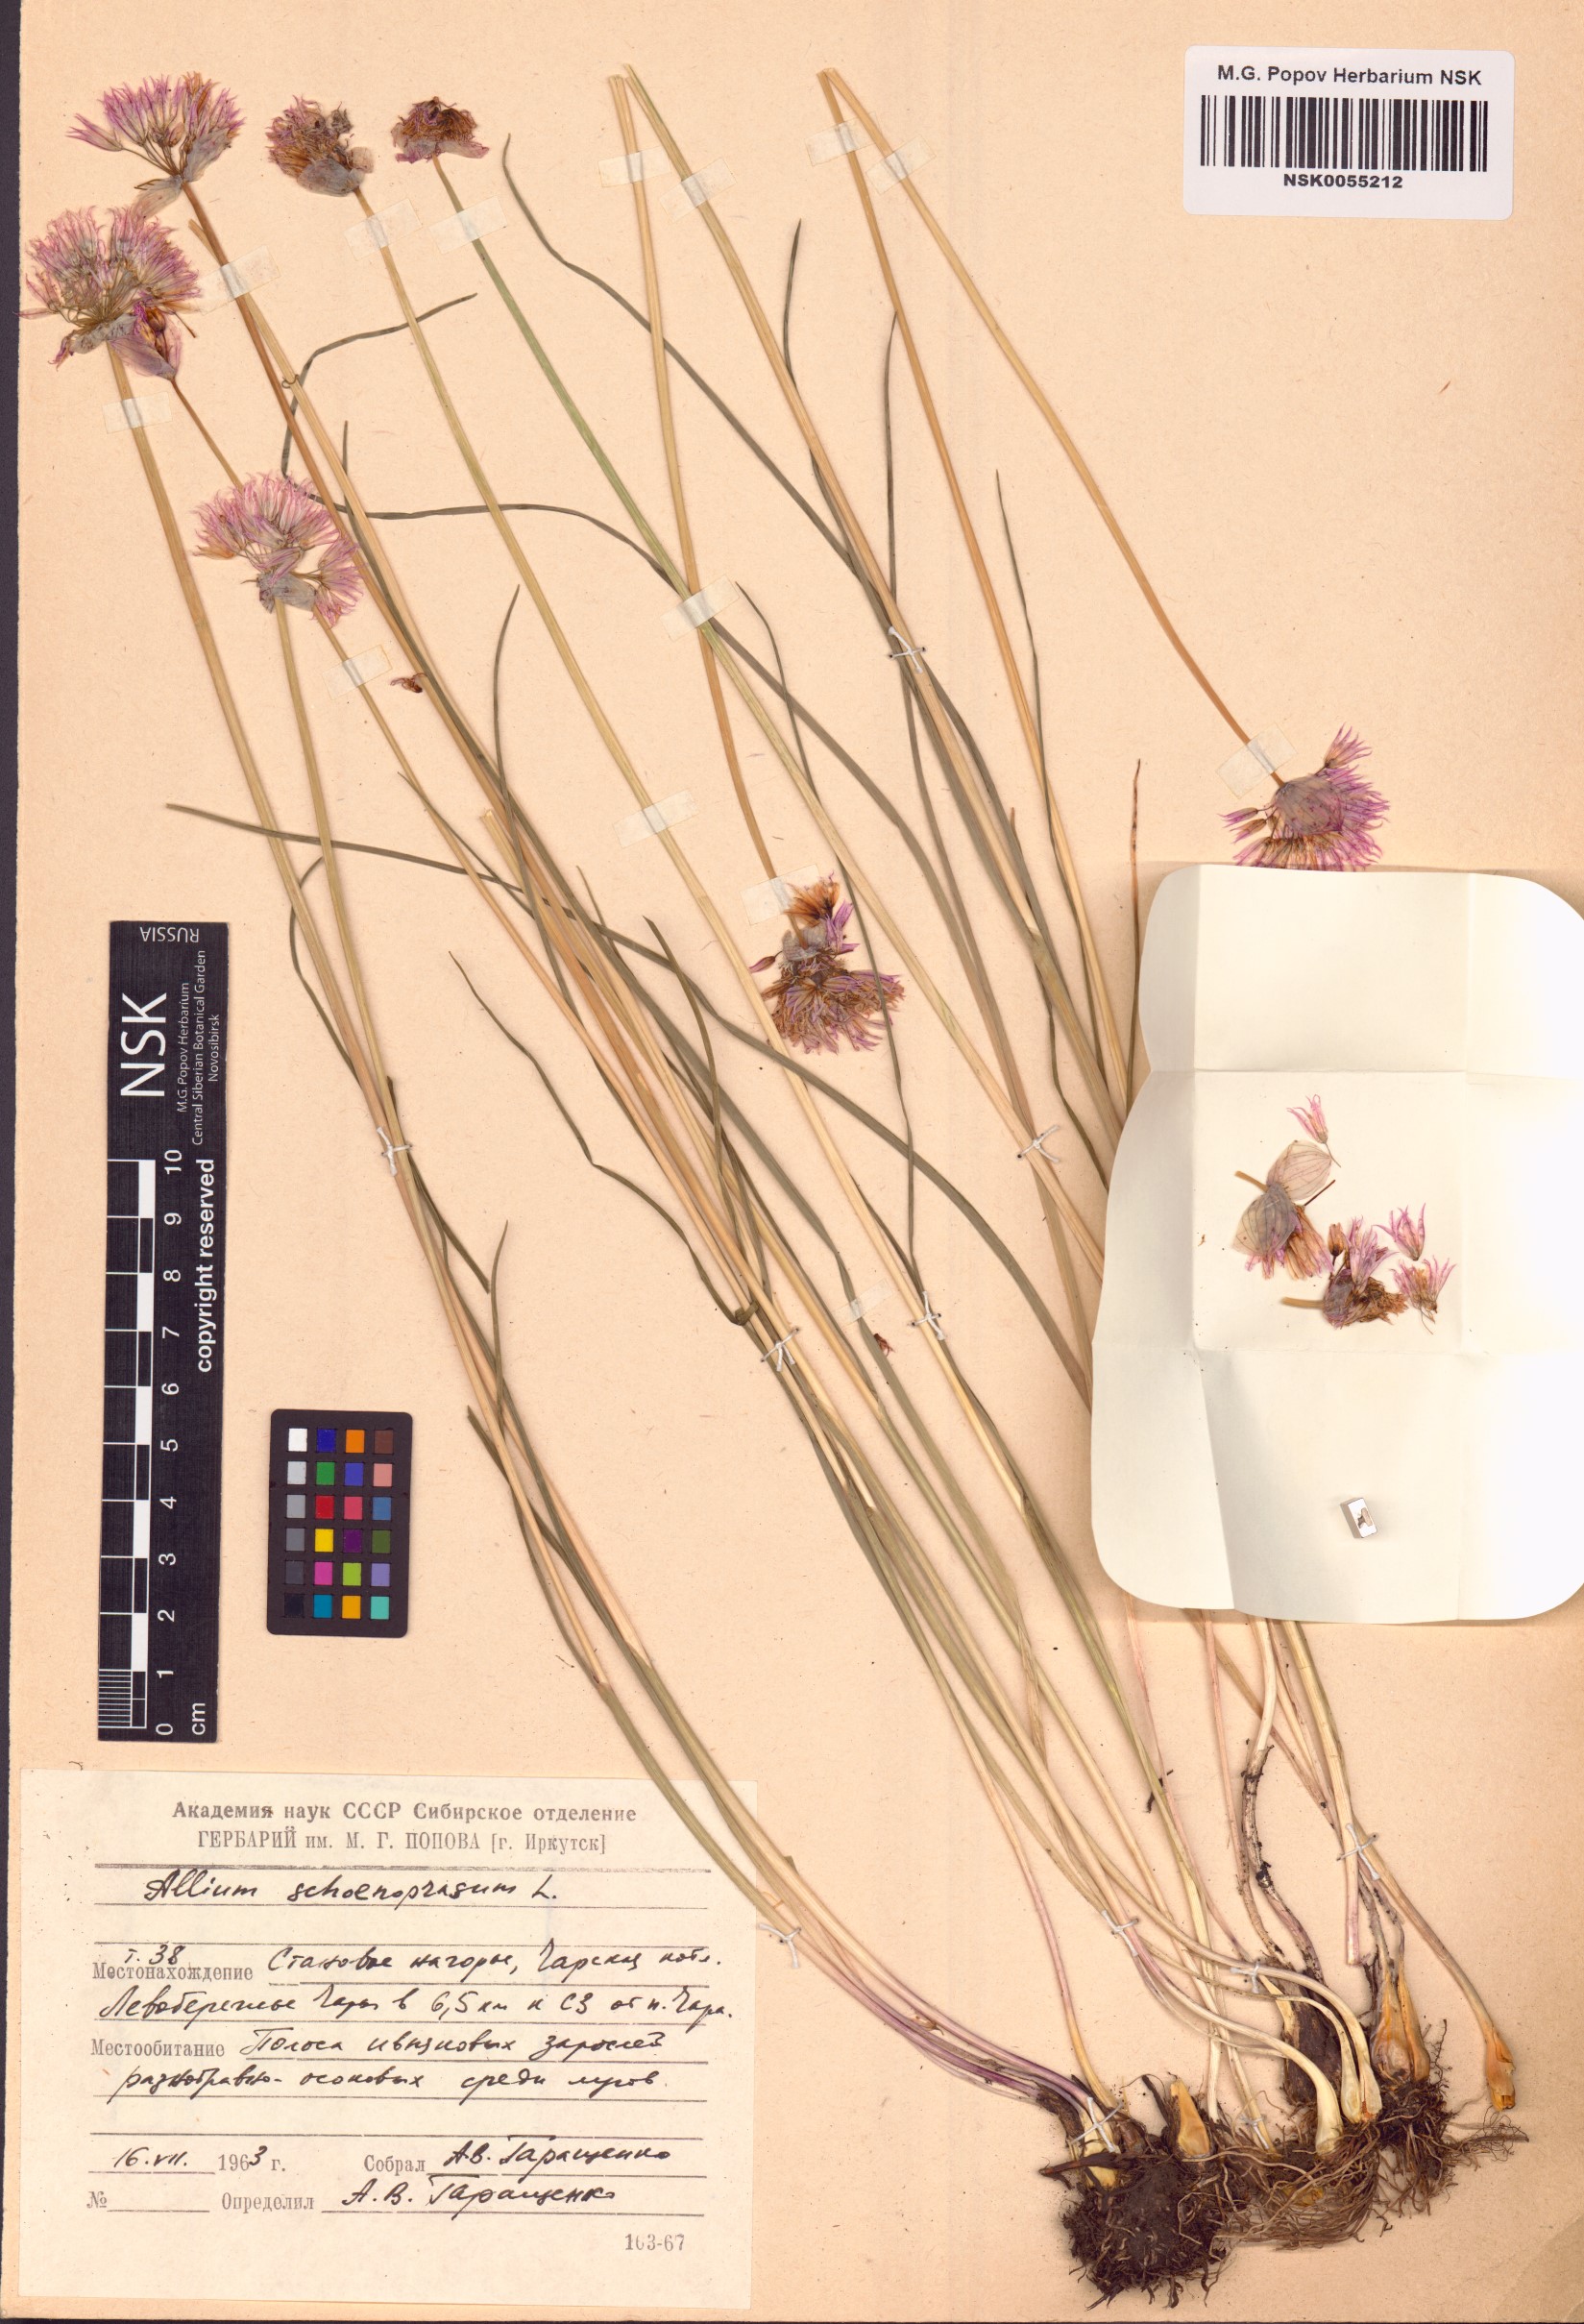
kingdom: Plantae
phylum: Tracheophyta
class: Liliopsida
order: Asparagales
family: Amaryllidaceae
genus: Allium
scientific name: Allium schoenoprasum
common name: Chives
